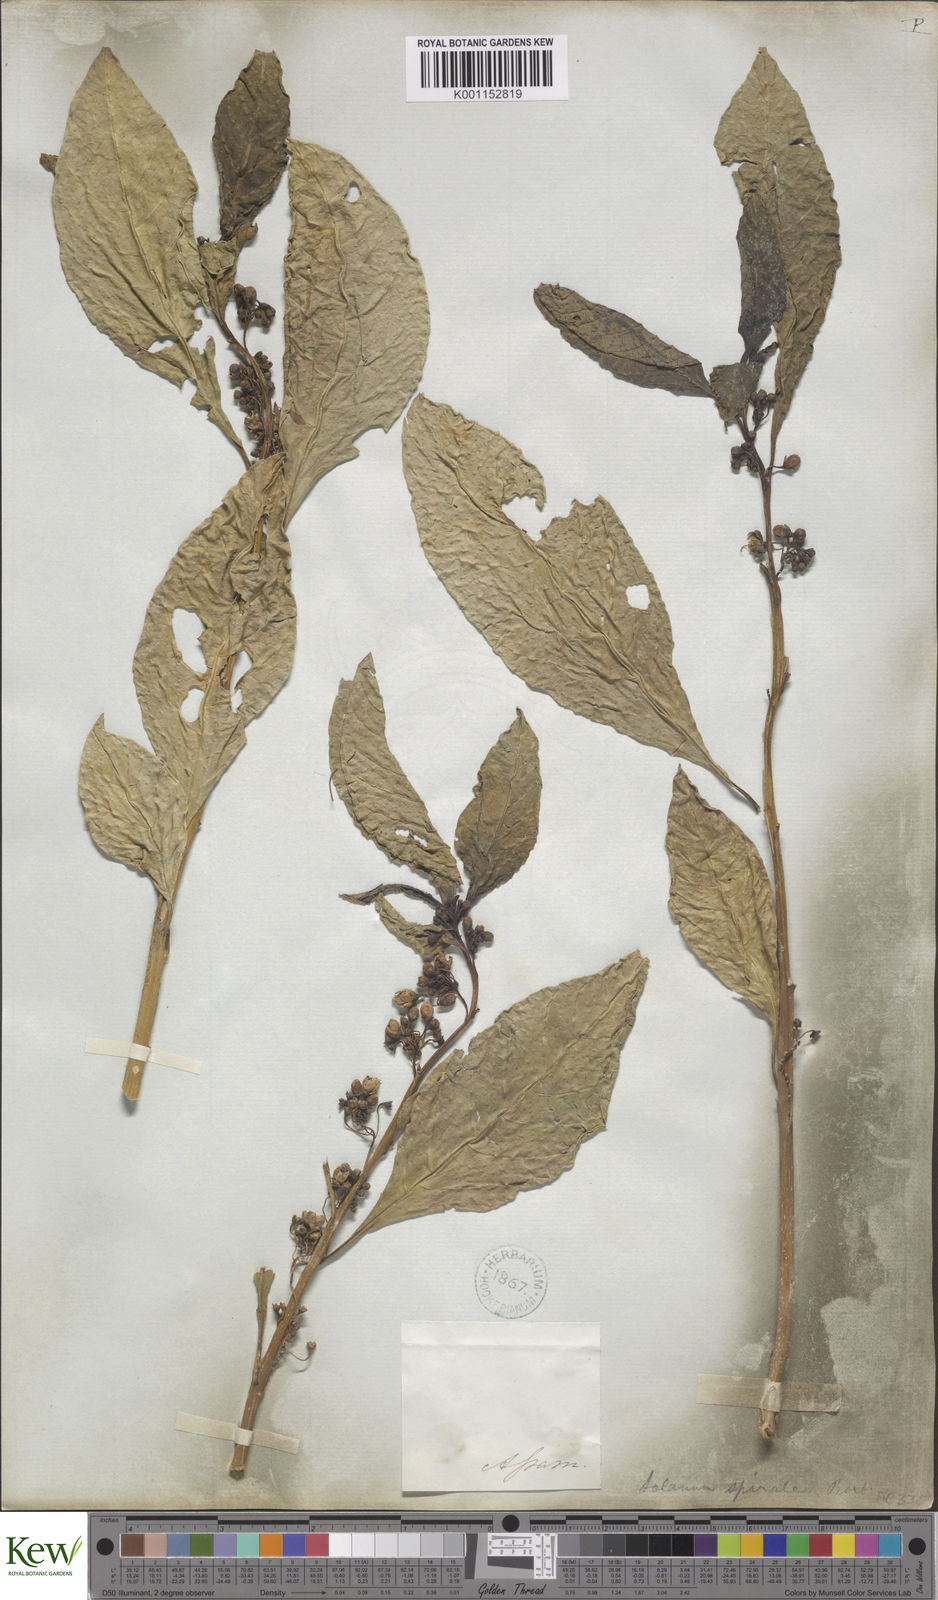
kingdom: Plantae
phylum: Tracheophyta
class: Magnoliopsida
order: Solanales
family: Solanaceae
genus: Solanum
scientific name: Solanum spirale
